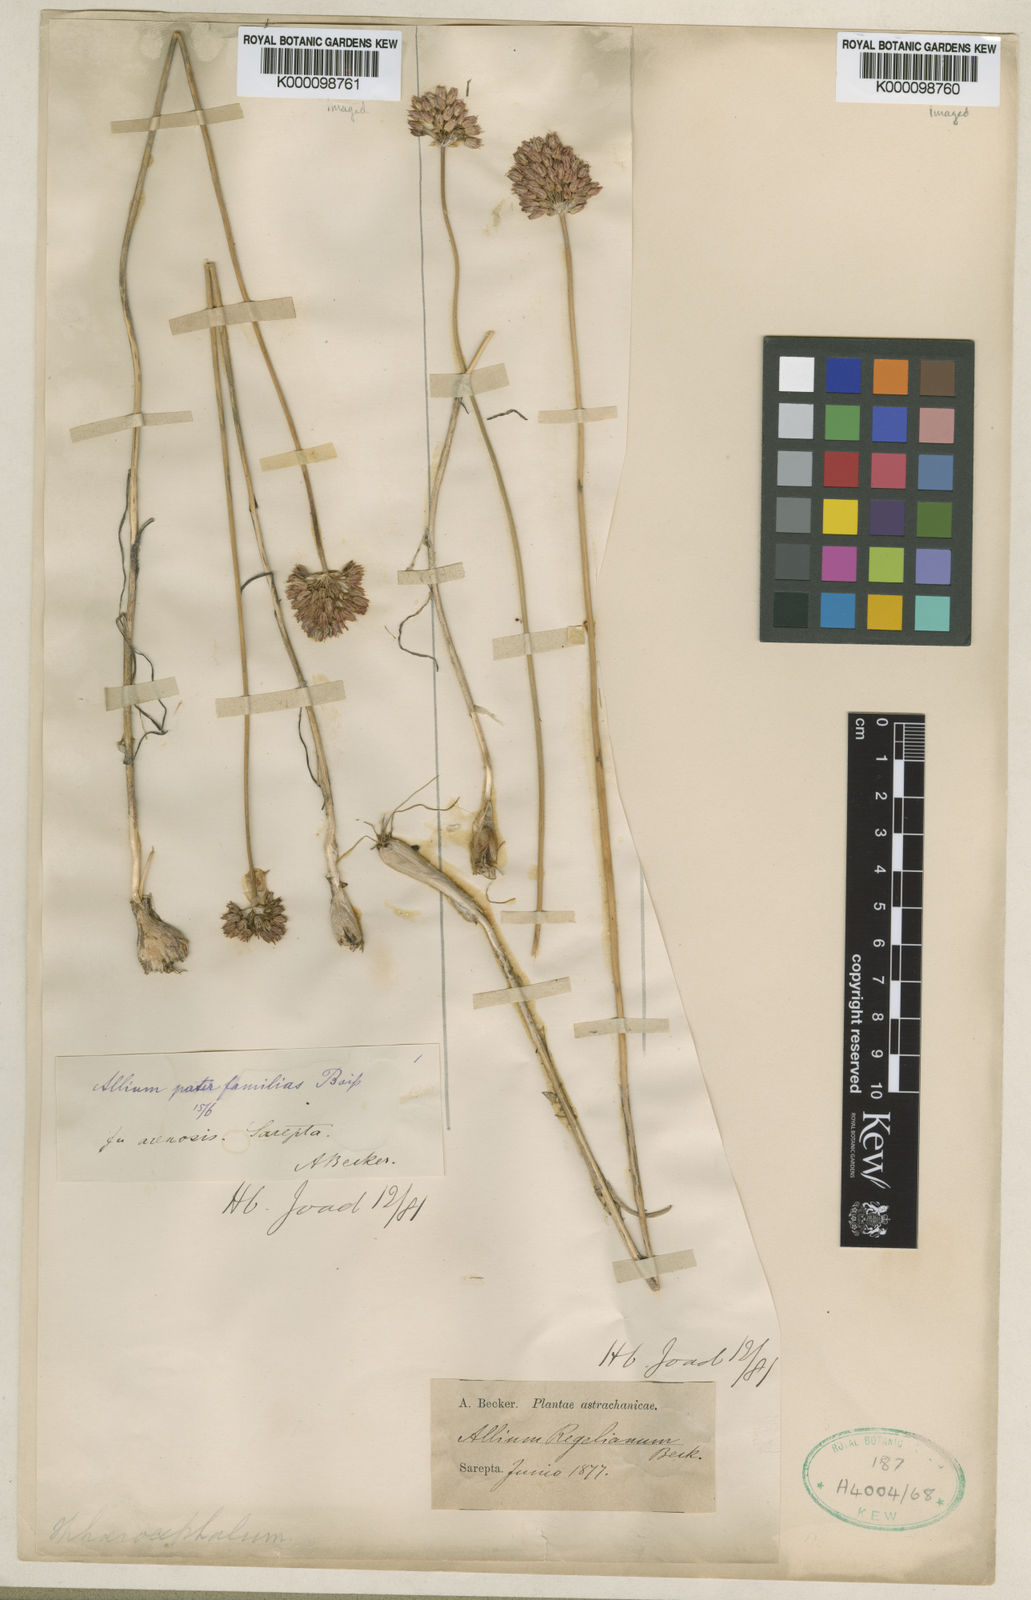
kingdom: Plantae
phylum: Tracheophyta
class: Liliopsida
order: Asparagales
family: Amaryllidaceae
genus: Allium
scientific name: Allium
